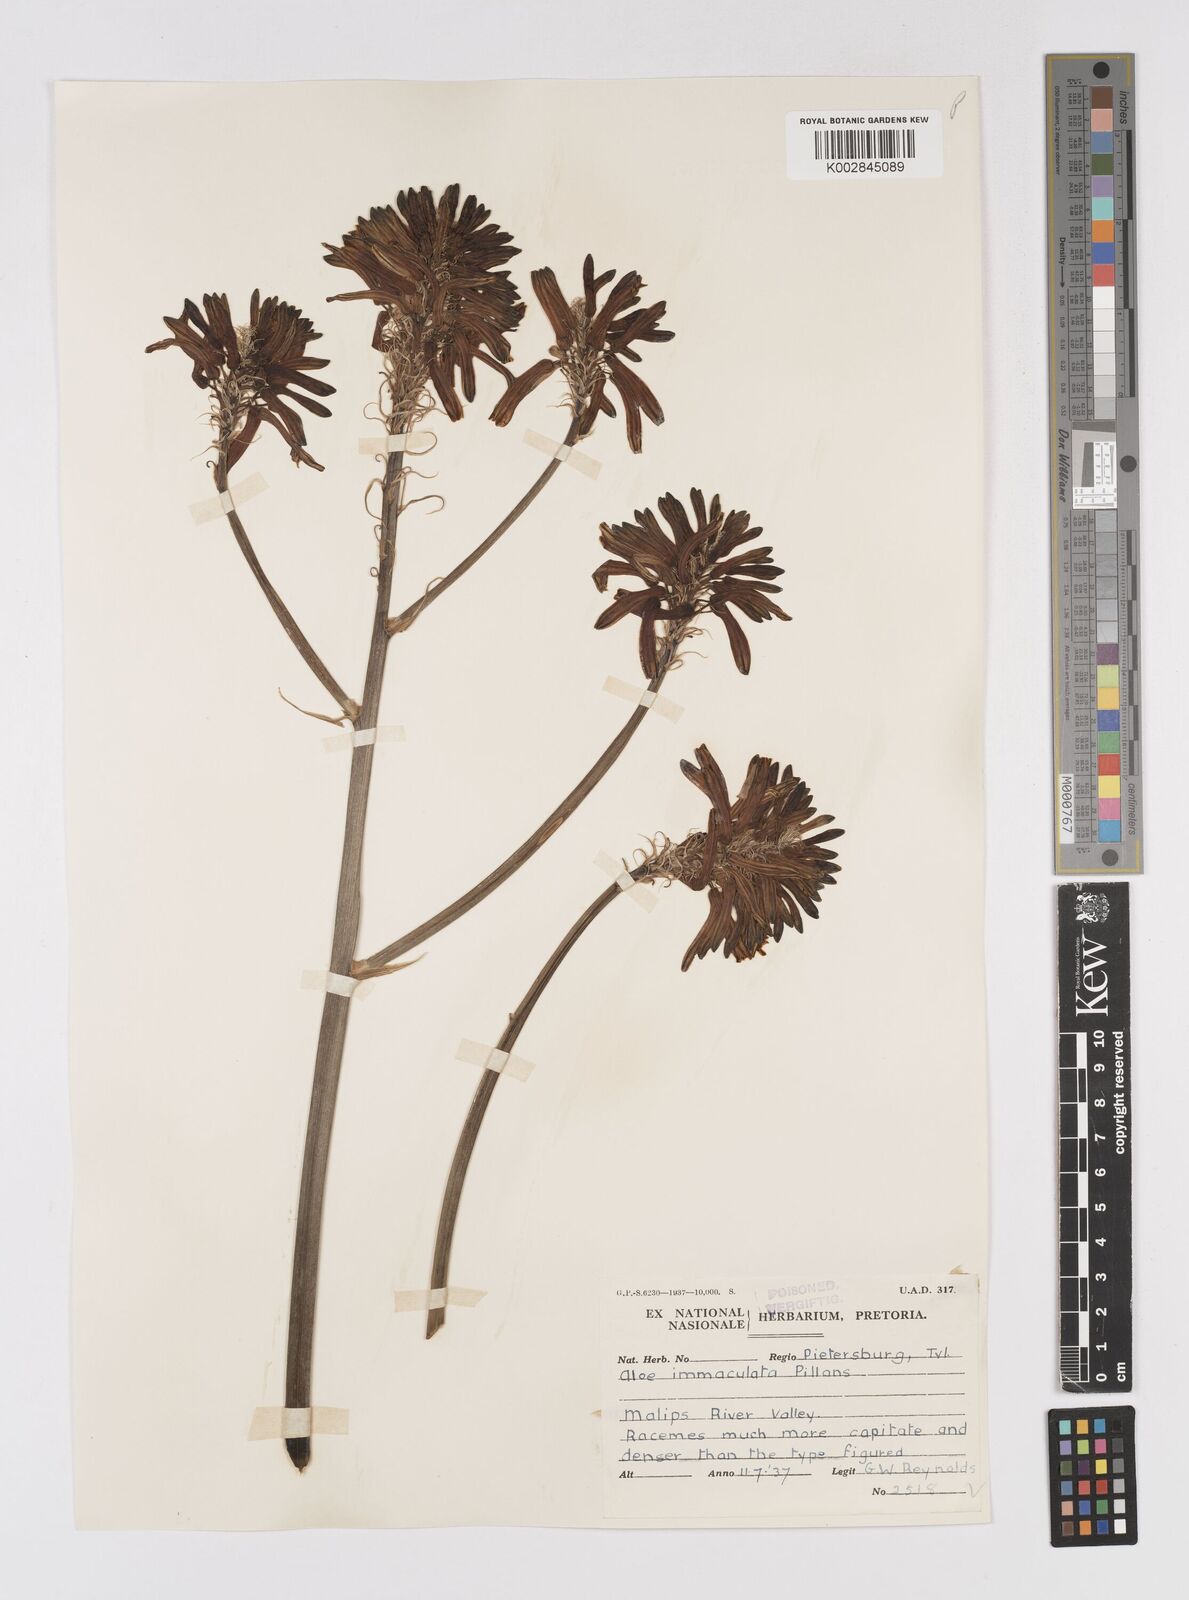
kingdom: Plantae
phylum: Tracheophyta
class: Liliopsida
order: Asparagales
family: Asphodelaceae
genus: Aloe
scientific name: Aloe immaculata
